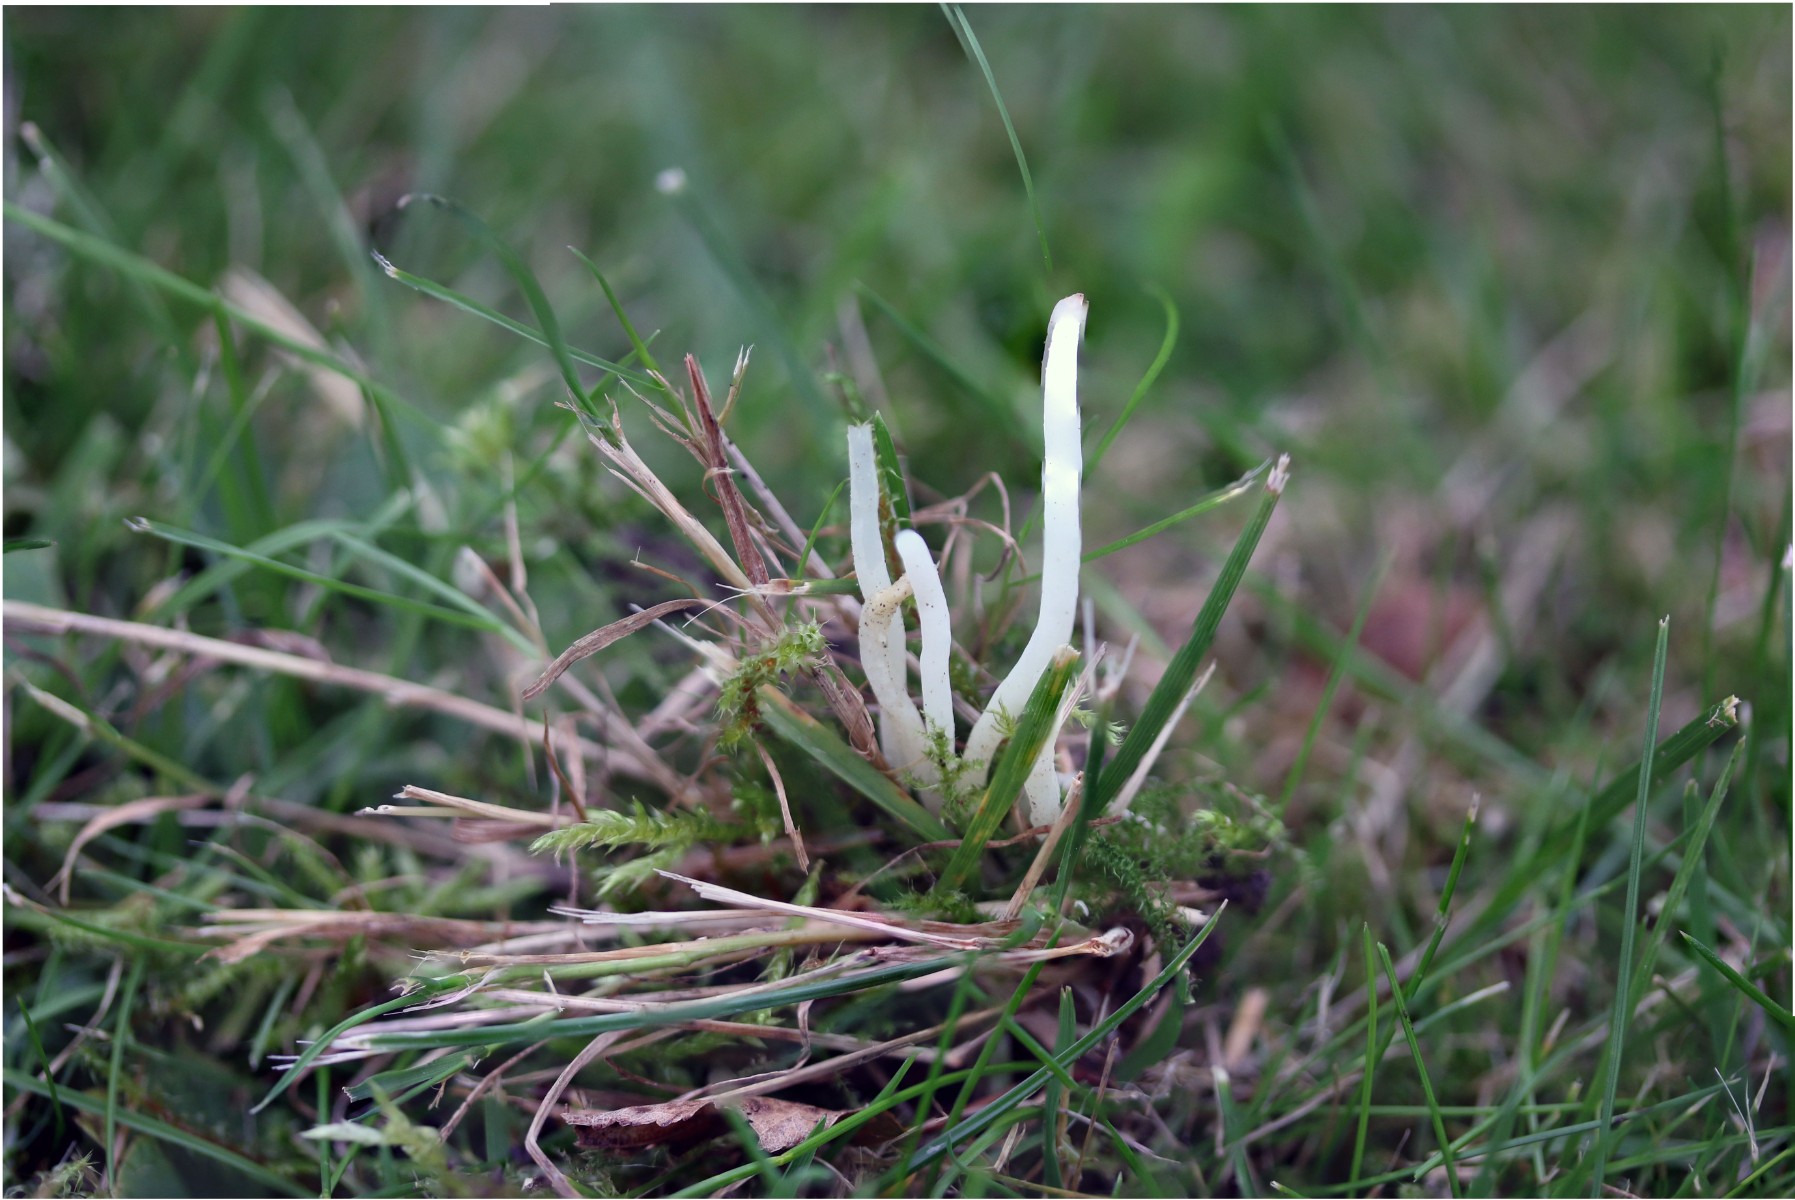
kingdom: Fungi
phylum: Basidiomycota
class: Agaricomycetes
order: Agaricales
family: Clavariaceae
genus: Clavaria
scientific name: Clavaria fragilis
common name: bugtet køllesvamp
